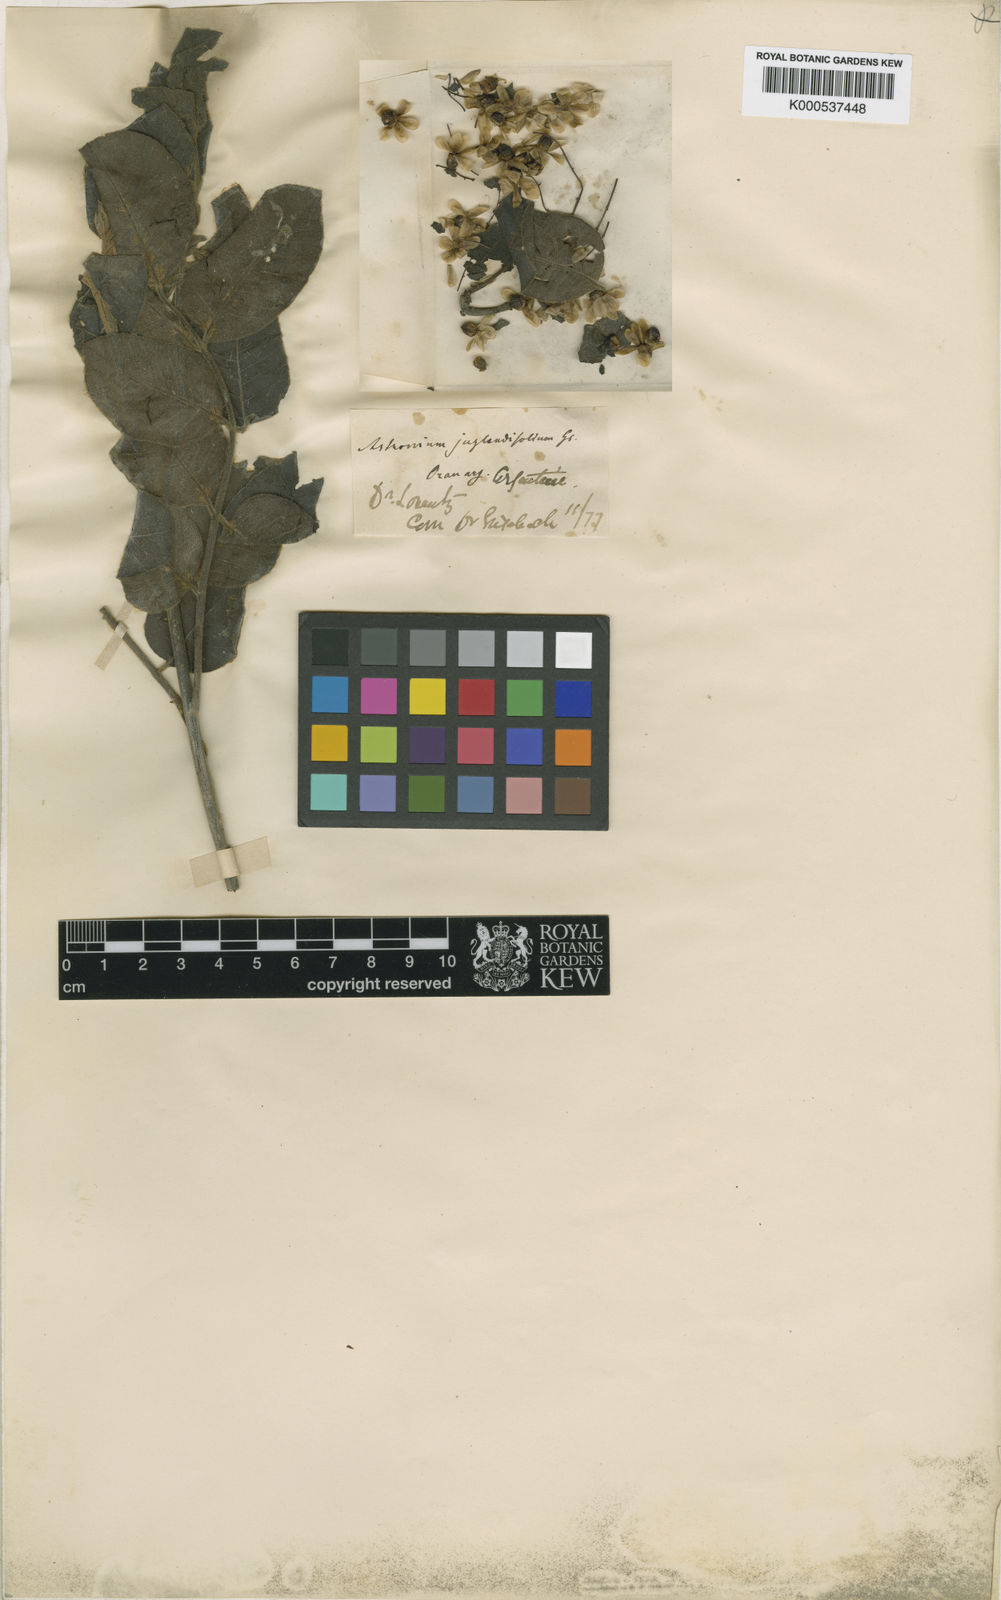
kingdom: Plantae
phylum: Tracheophyta
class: Magnoliopsida
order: Sapindales
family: Anacardiaceae
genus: Astronium
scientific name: Astronium
